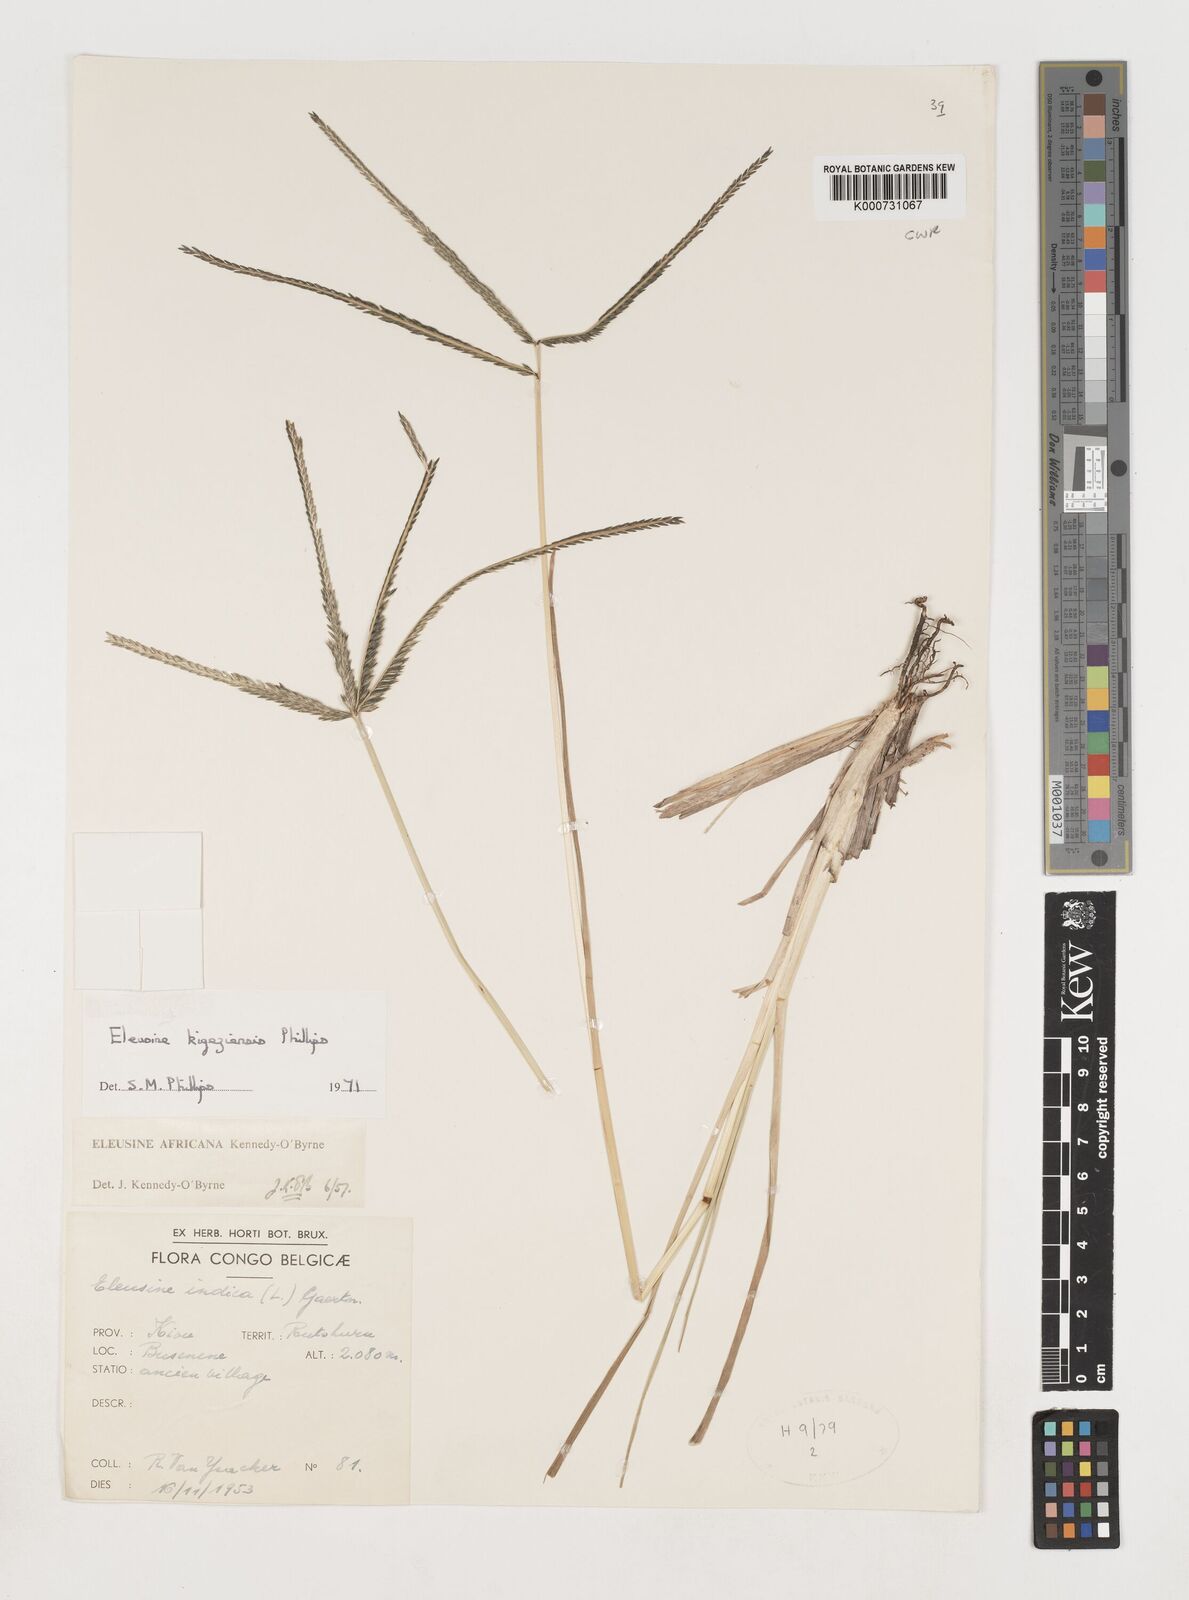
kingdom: Plantae
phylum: Tracheophyta
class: Liliopsida
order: Poales
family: Poaceae
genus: Eleusine
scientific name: Eleusine kigeziensis
